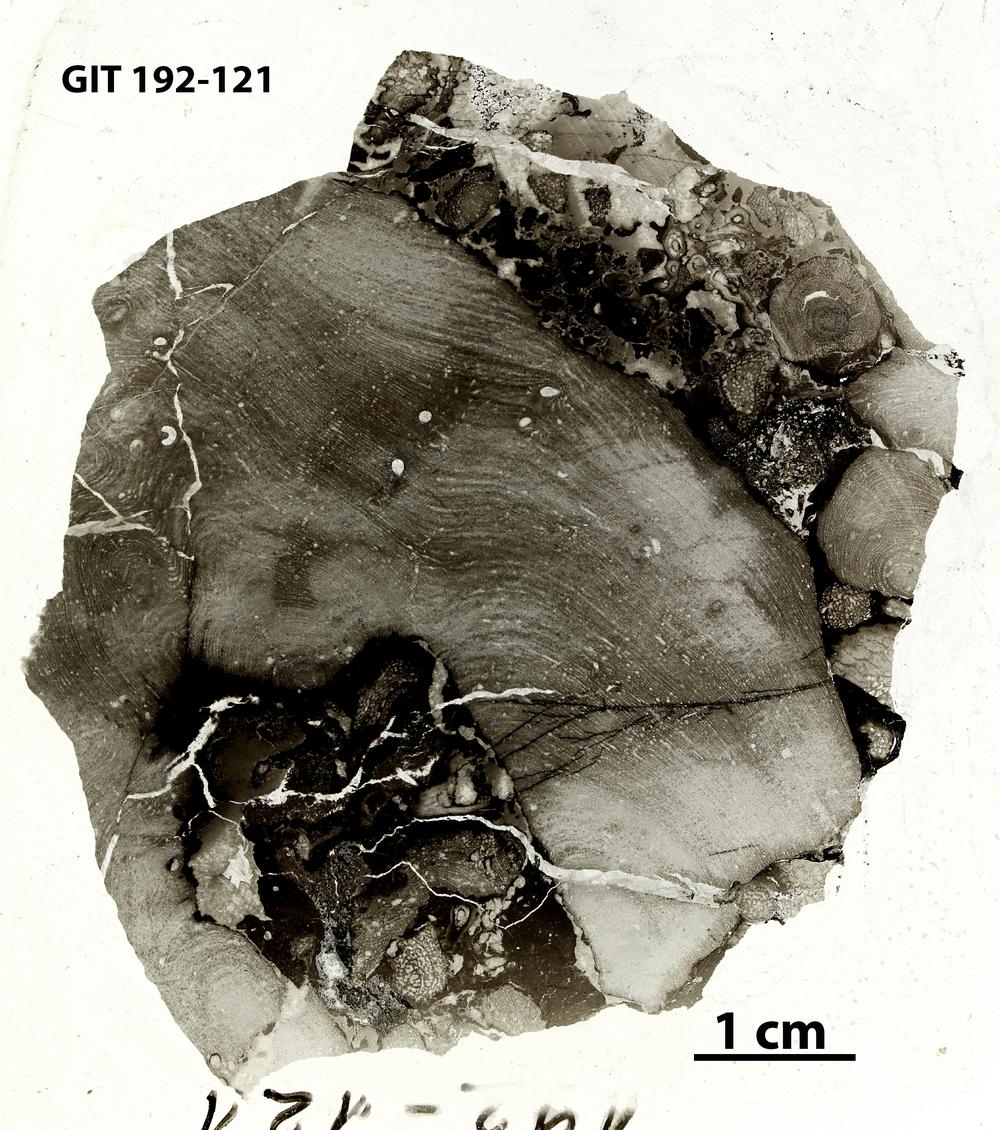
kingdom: Animalia
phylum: Porifera
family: Clathrodictyidae
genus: Clathrodictyon
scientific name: Clathrodictyon
